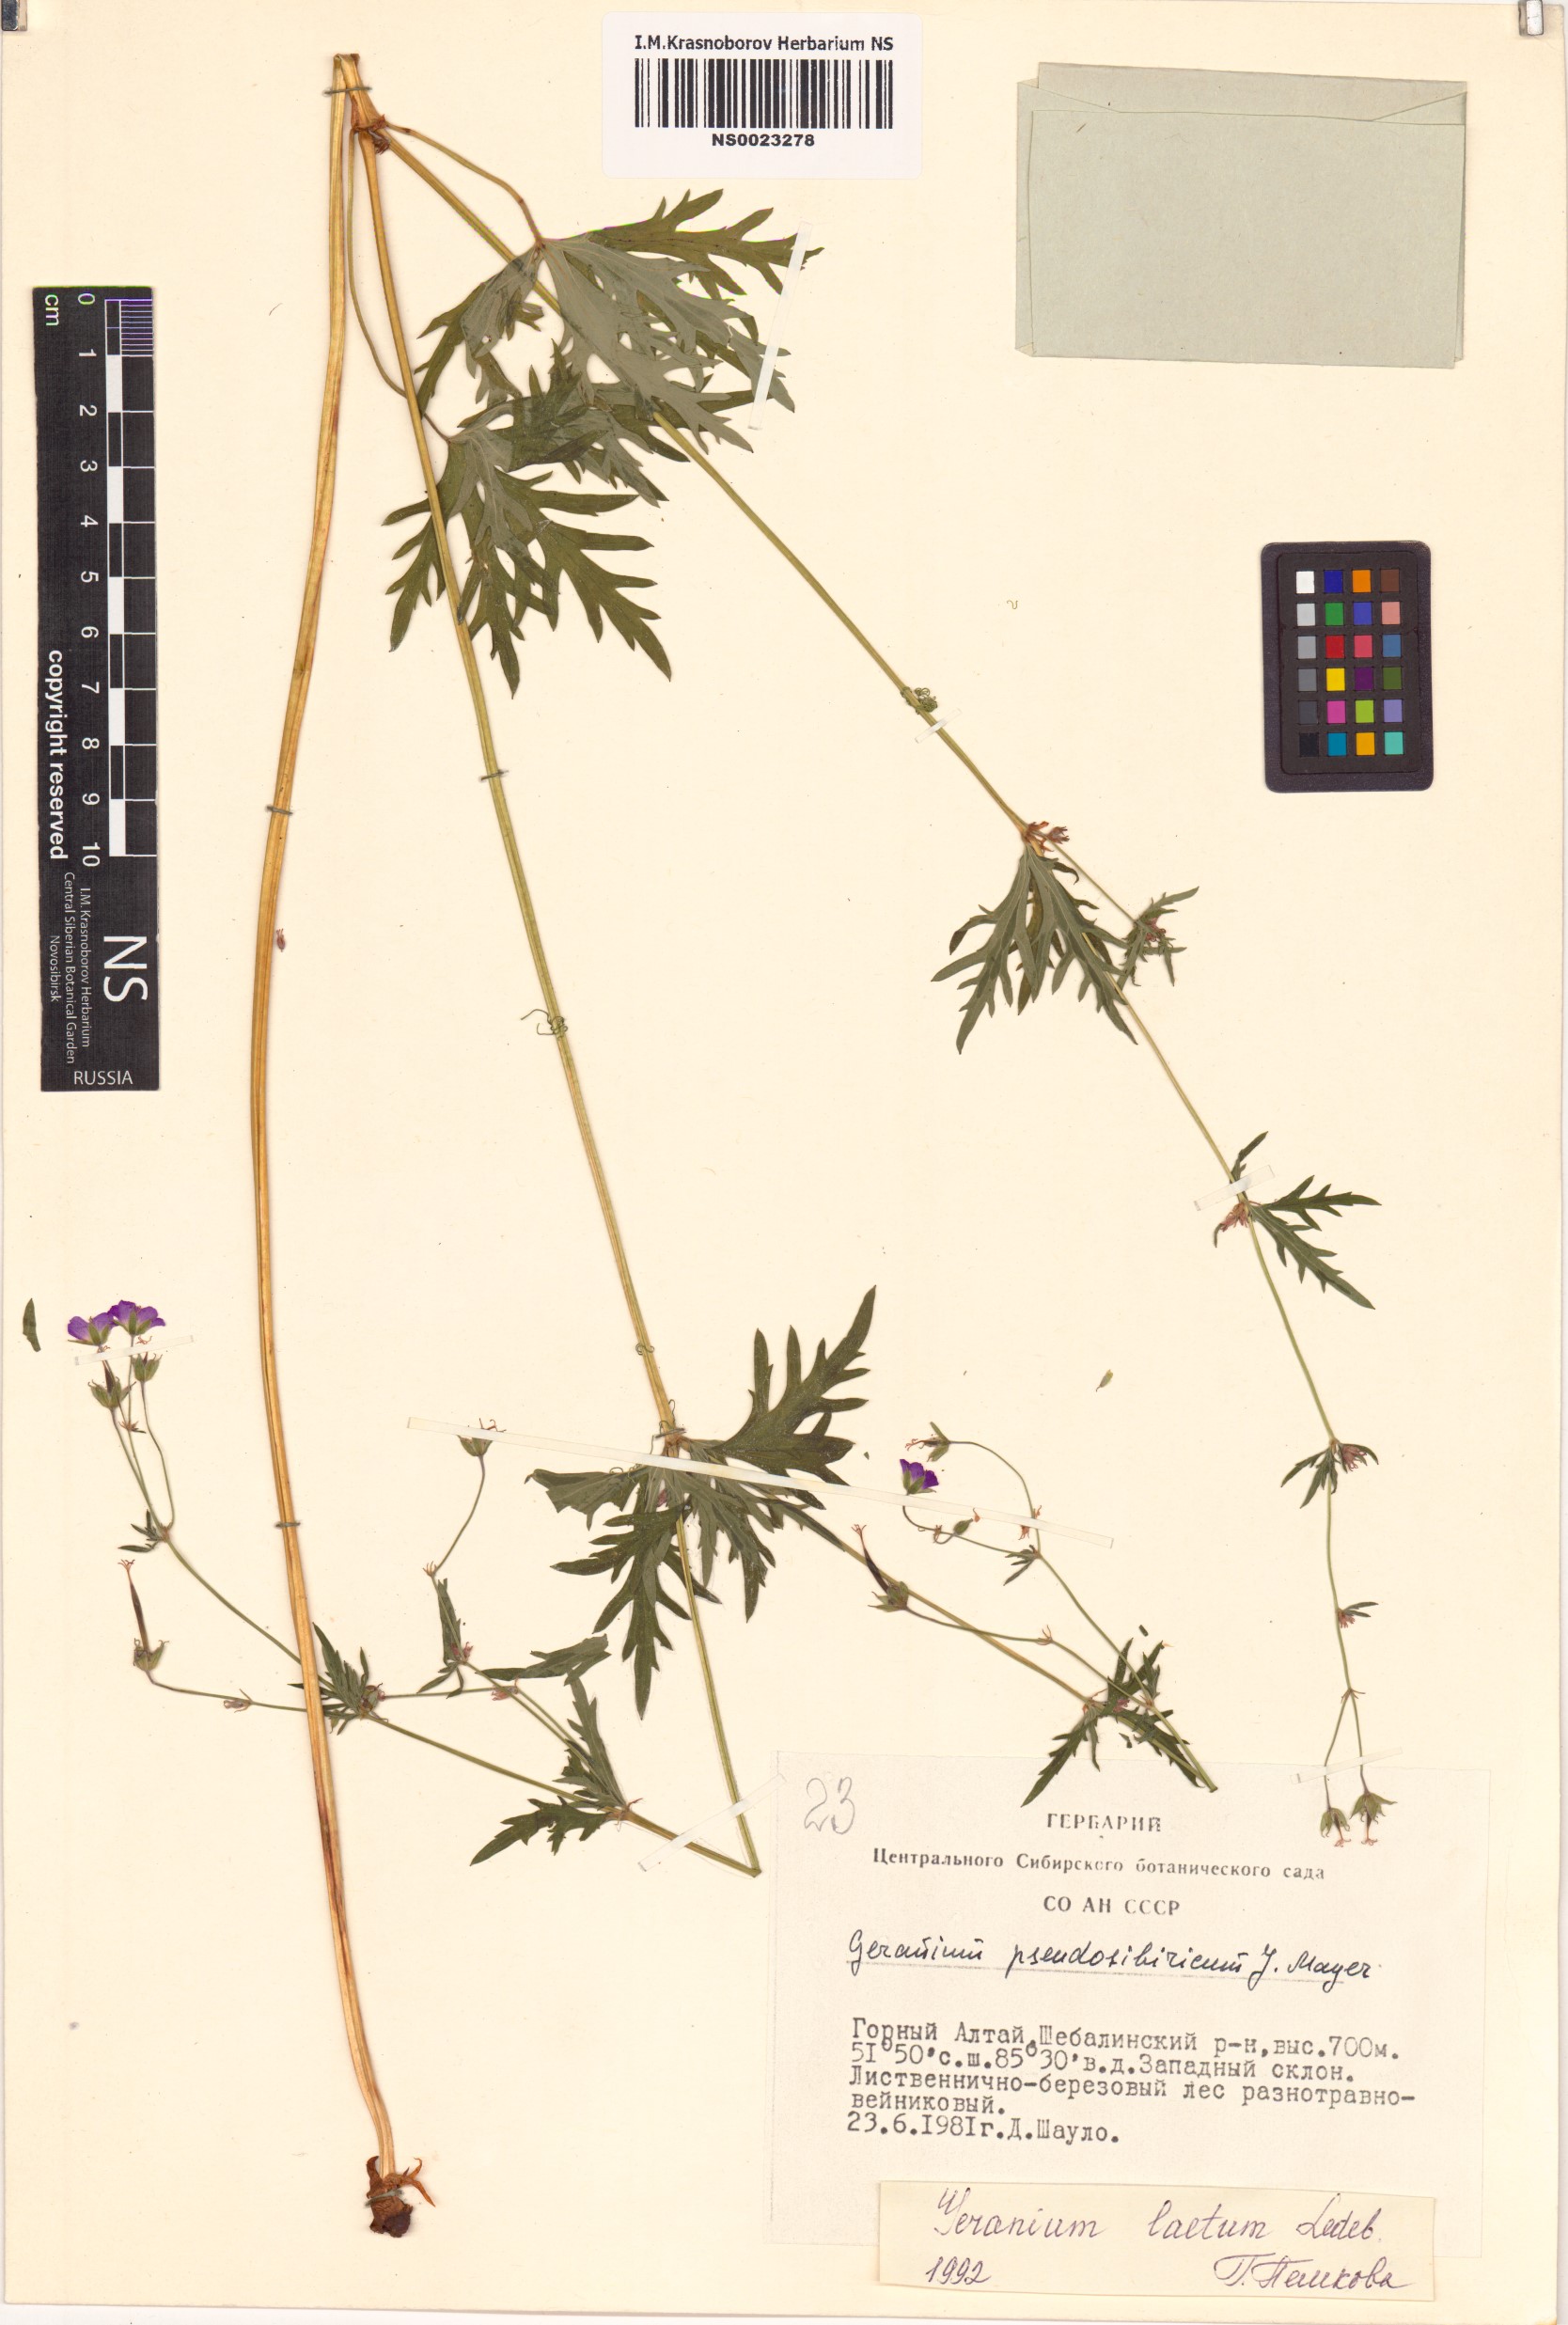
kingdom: Plantae
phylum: Tracheophyta
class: Magnoliopsida
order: Geraniales
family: Geraniaceae
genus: Geranium
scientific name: Geranium pseudosibiricum
